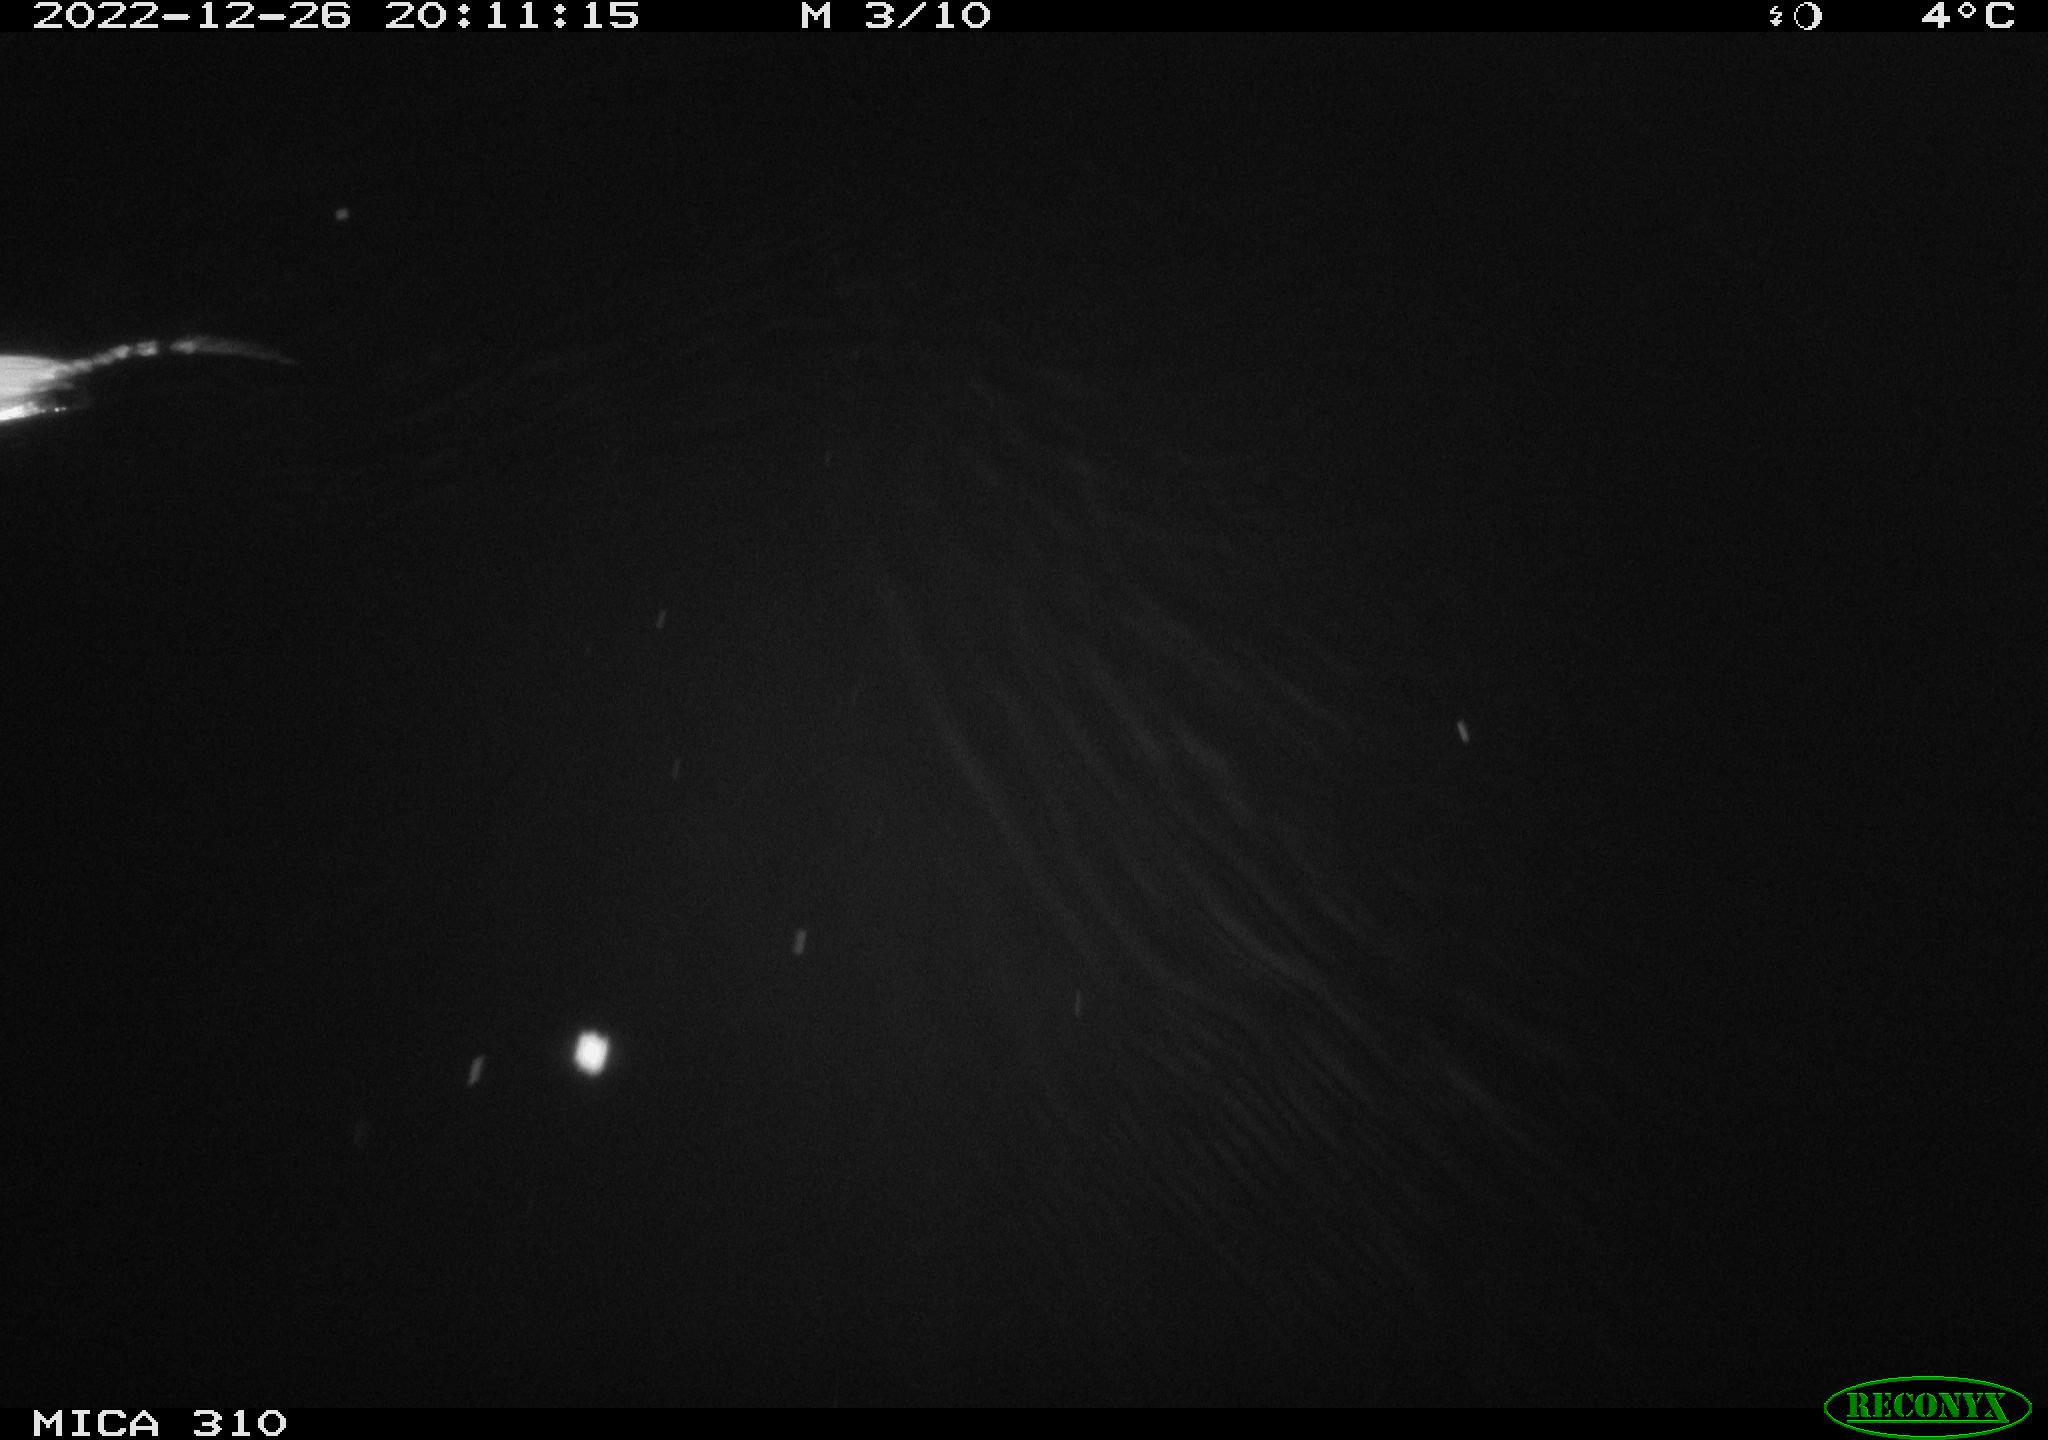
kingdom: Animalia
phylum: Chordata
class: Mammalia
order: Rodentia
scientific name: Rodentia
